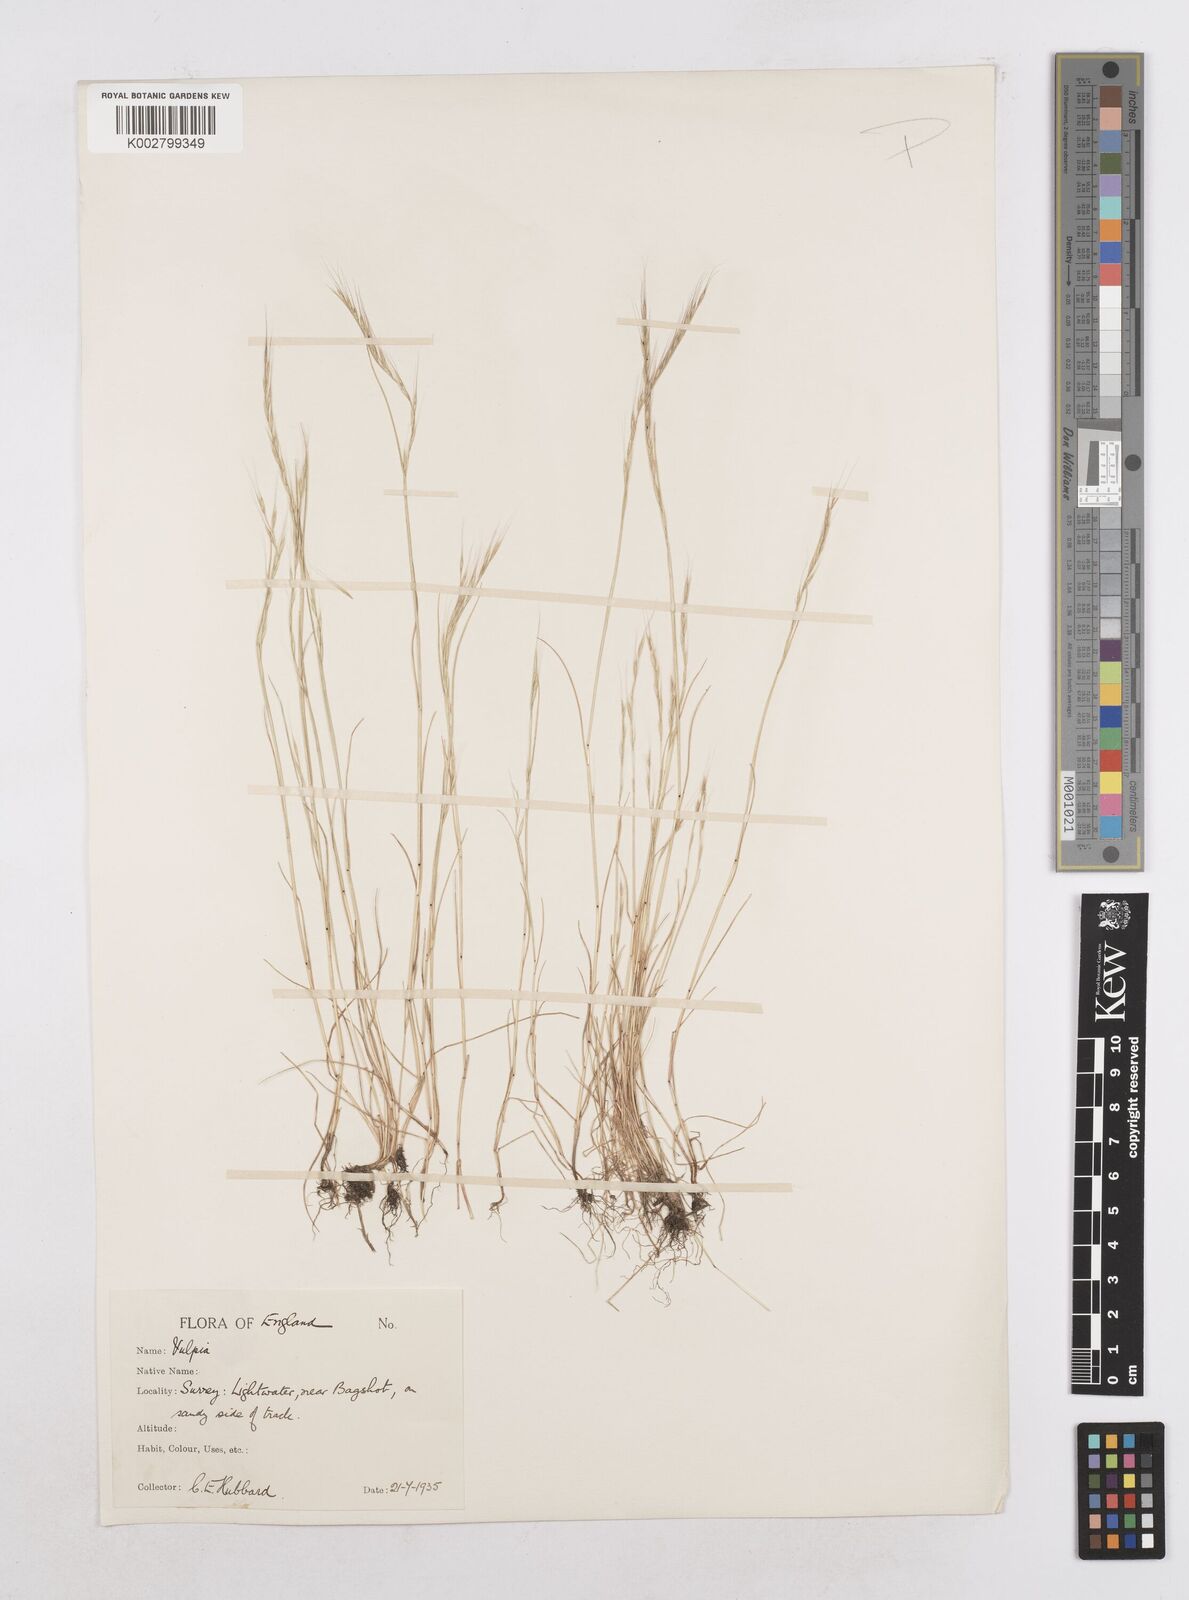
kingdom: Plantae
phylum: Tracheophyta
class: Liliopsida
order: Poales
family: Poaceae
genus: Festuca
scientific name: Festuca myuros
